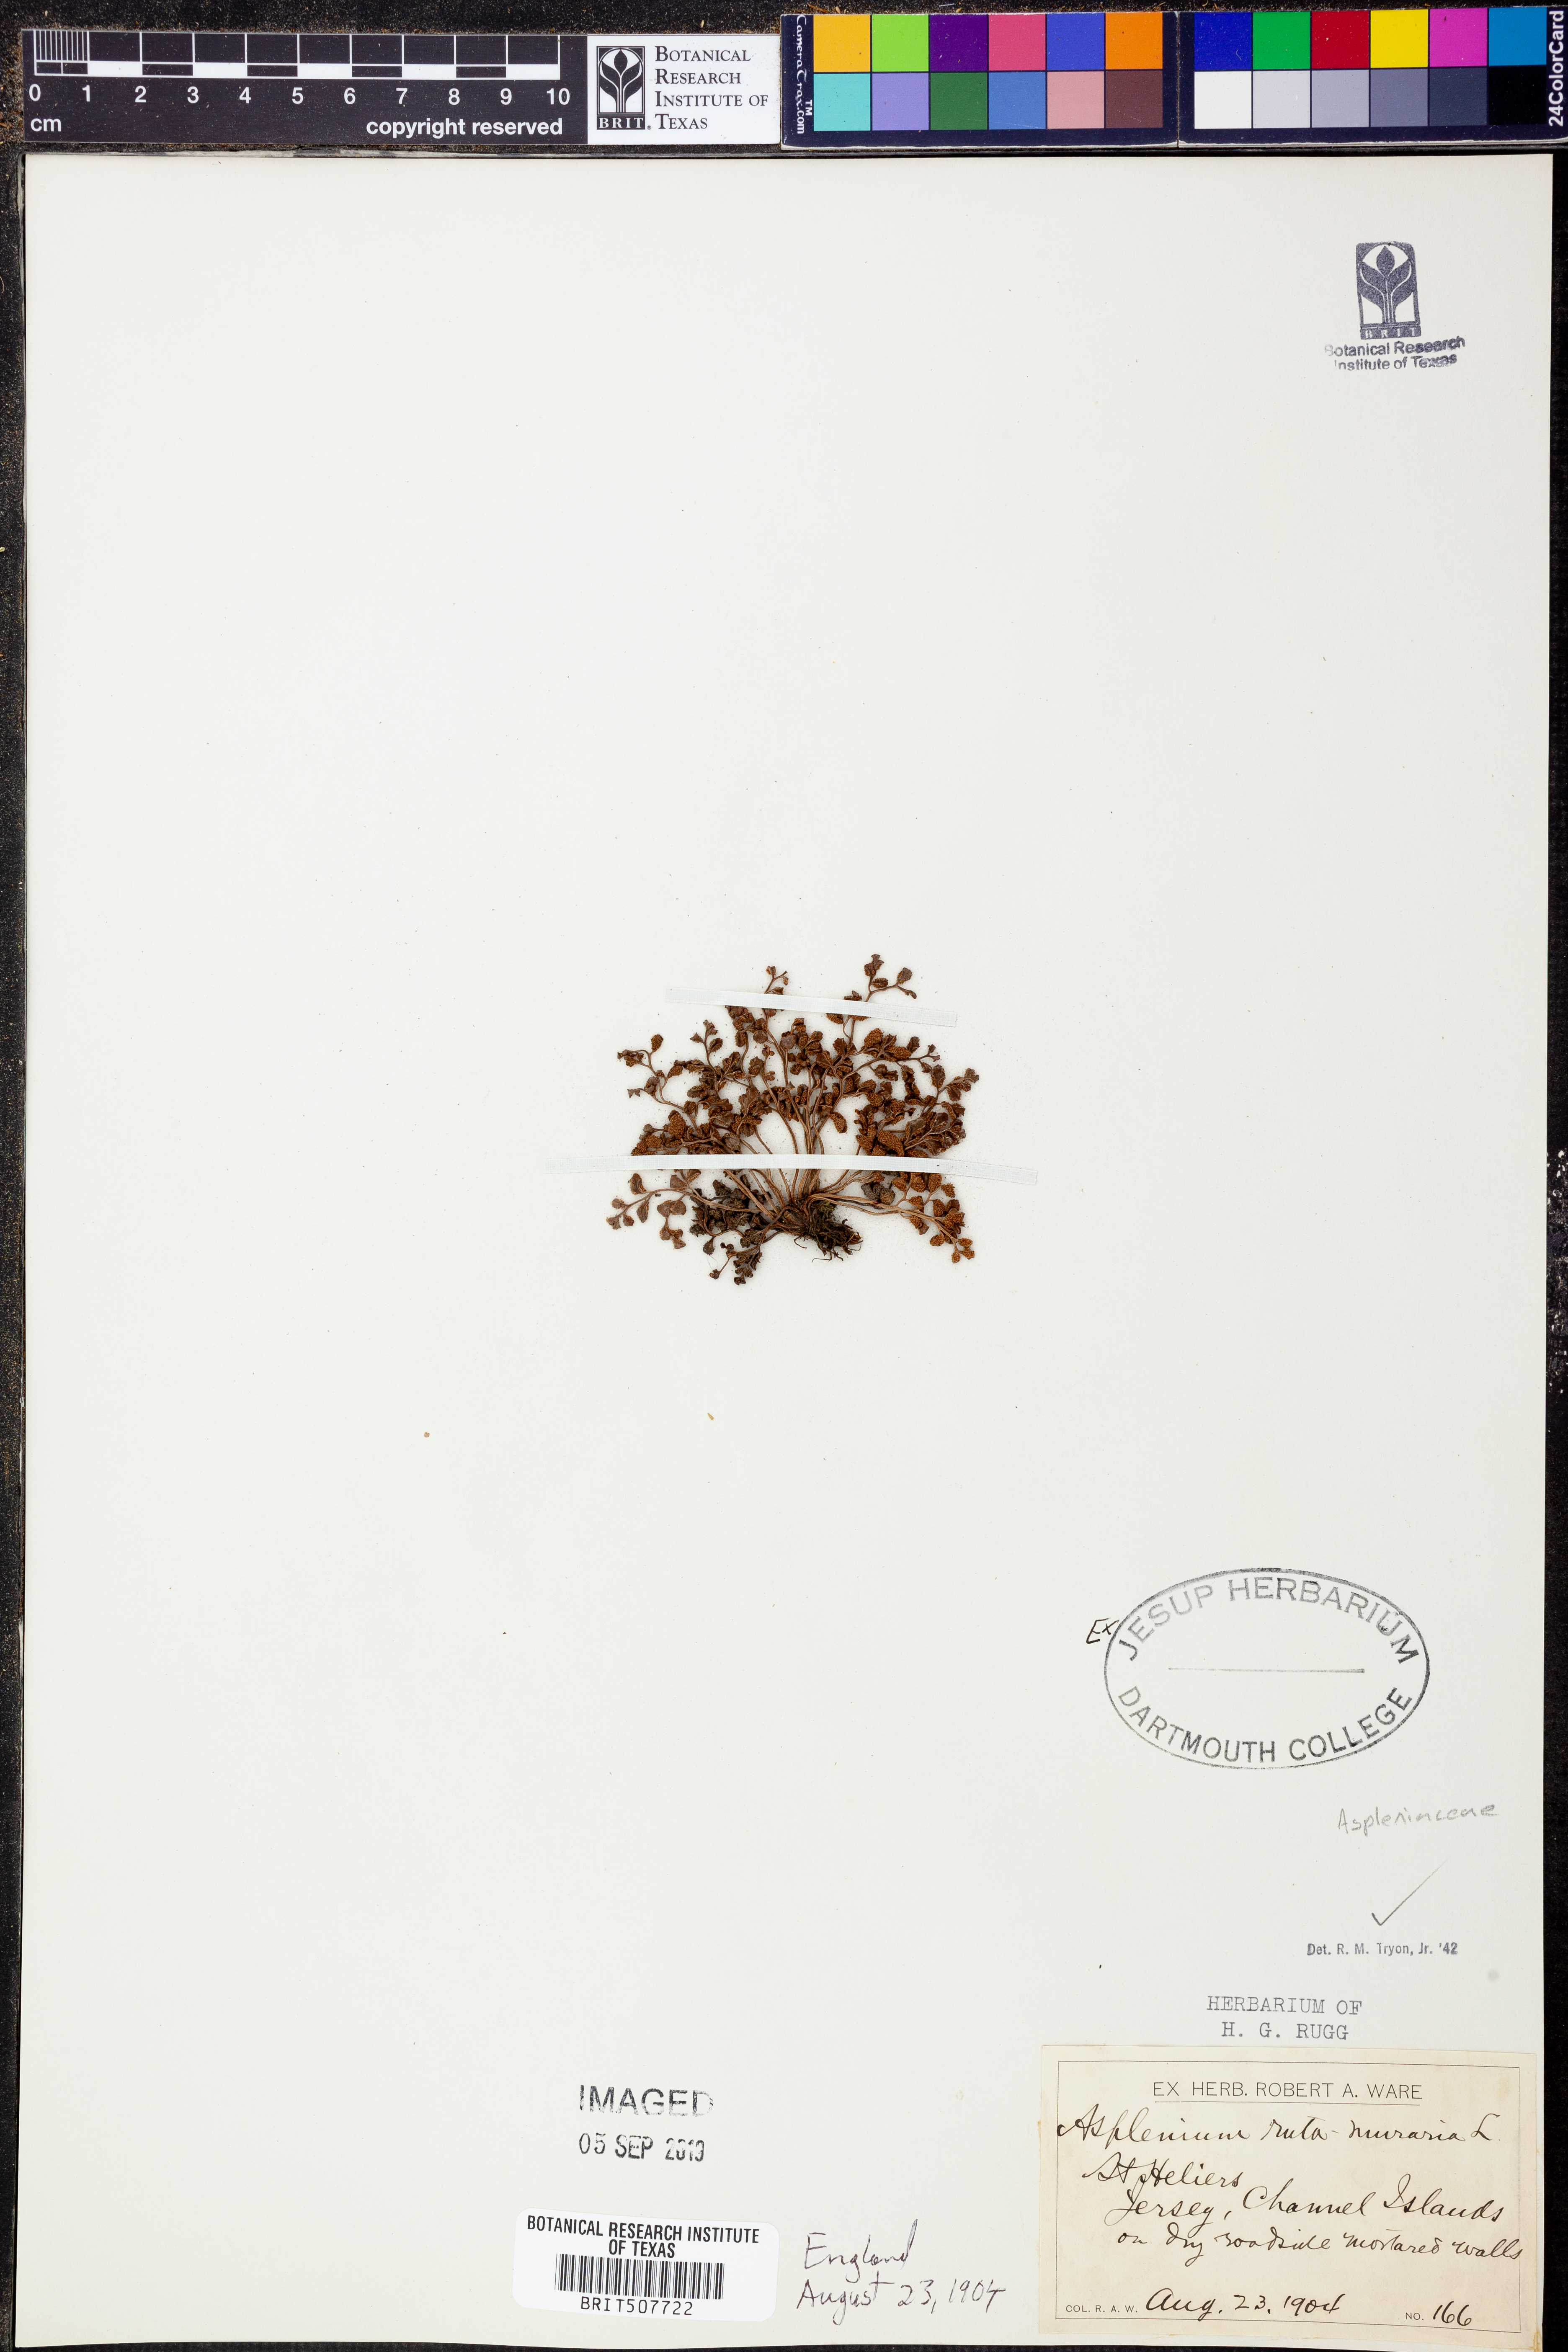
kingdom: Plantae
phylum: Tracheophyta
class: Polypodiopsida
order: Polypodiales
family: Aspleniaceae
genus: Asplenium
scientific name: Asplenium ruta-muraria
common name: Wall-rue
